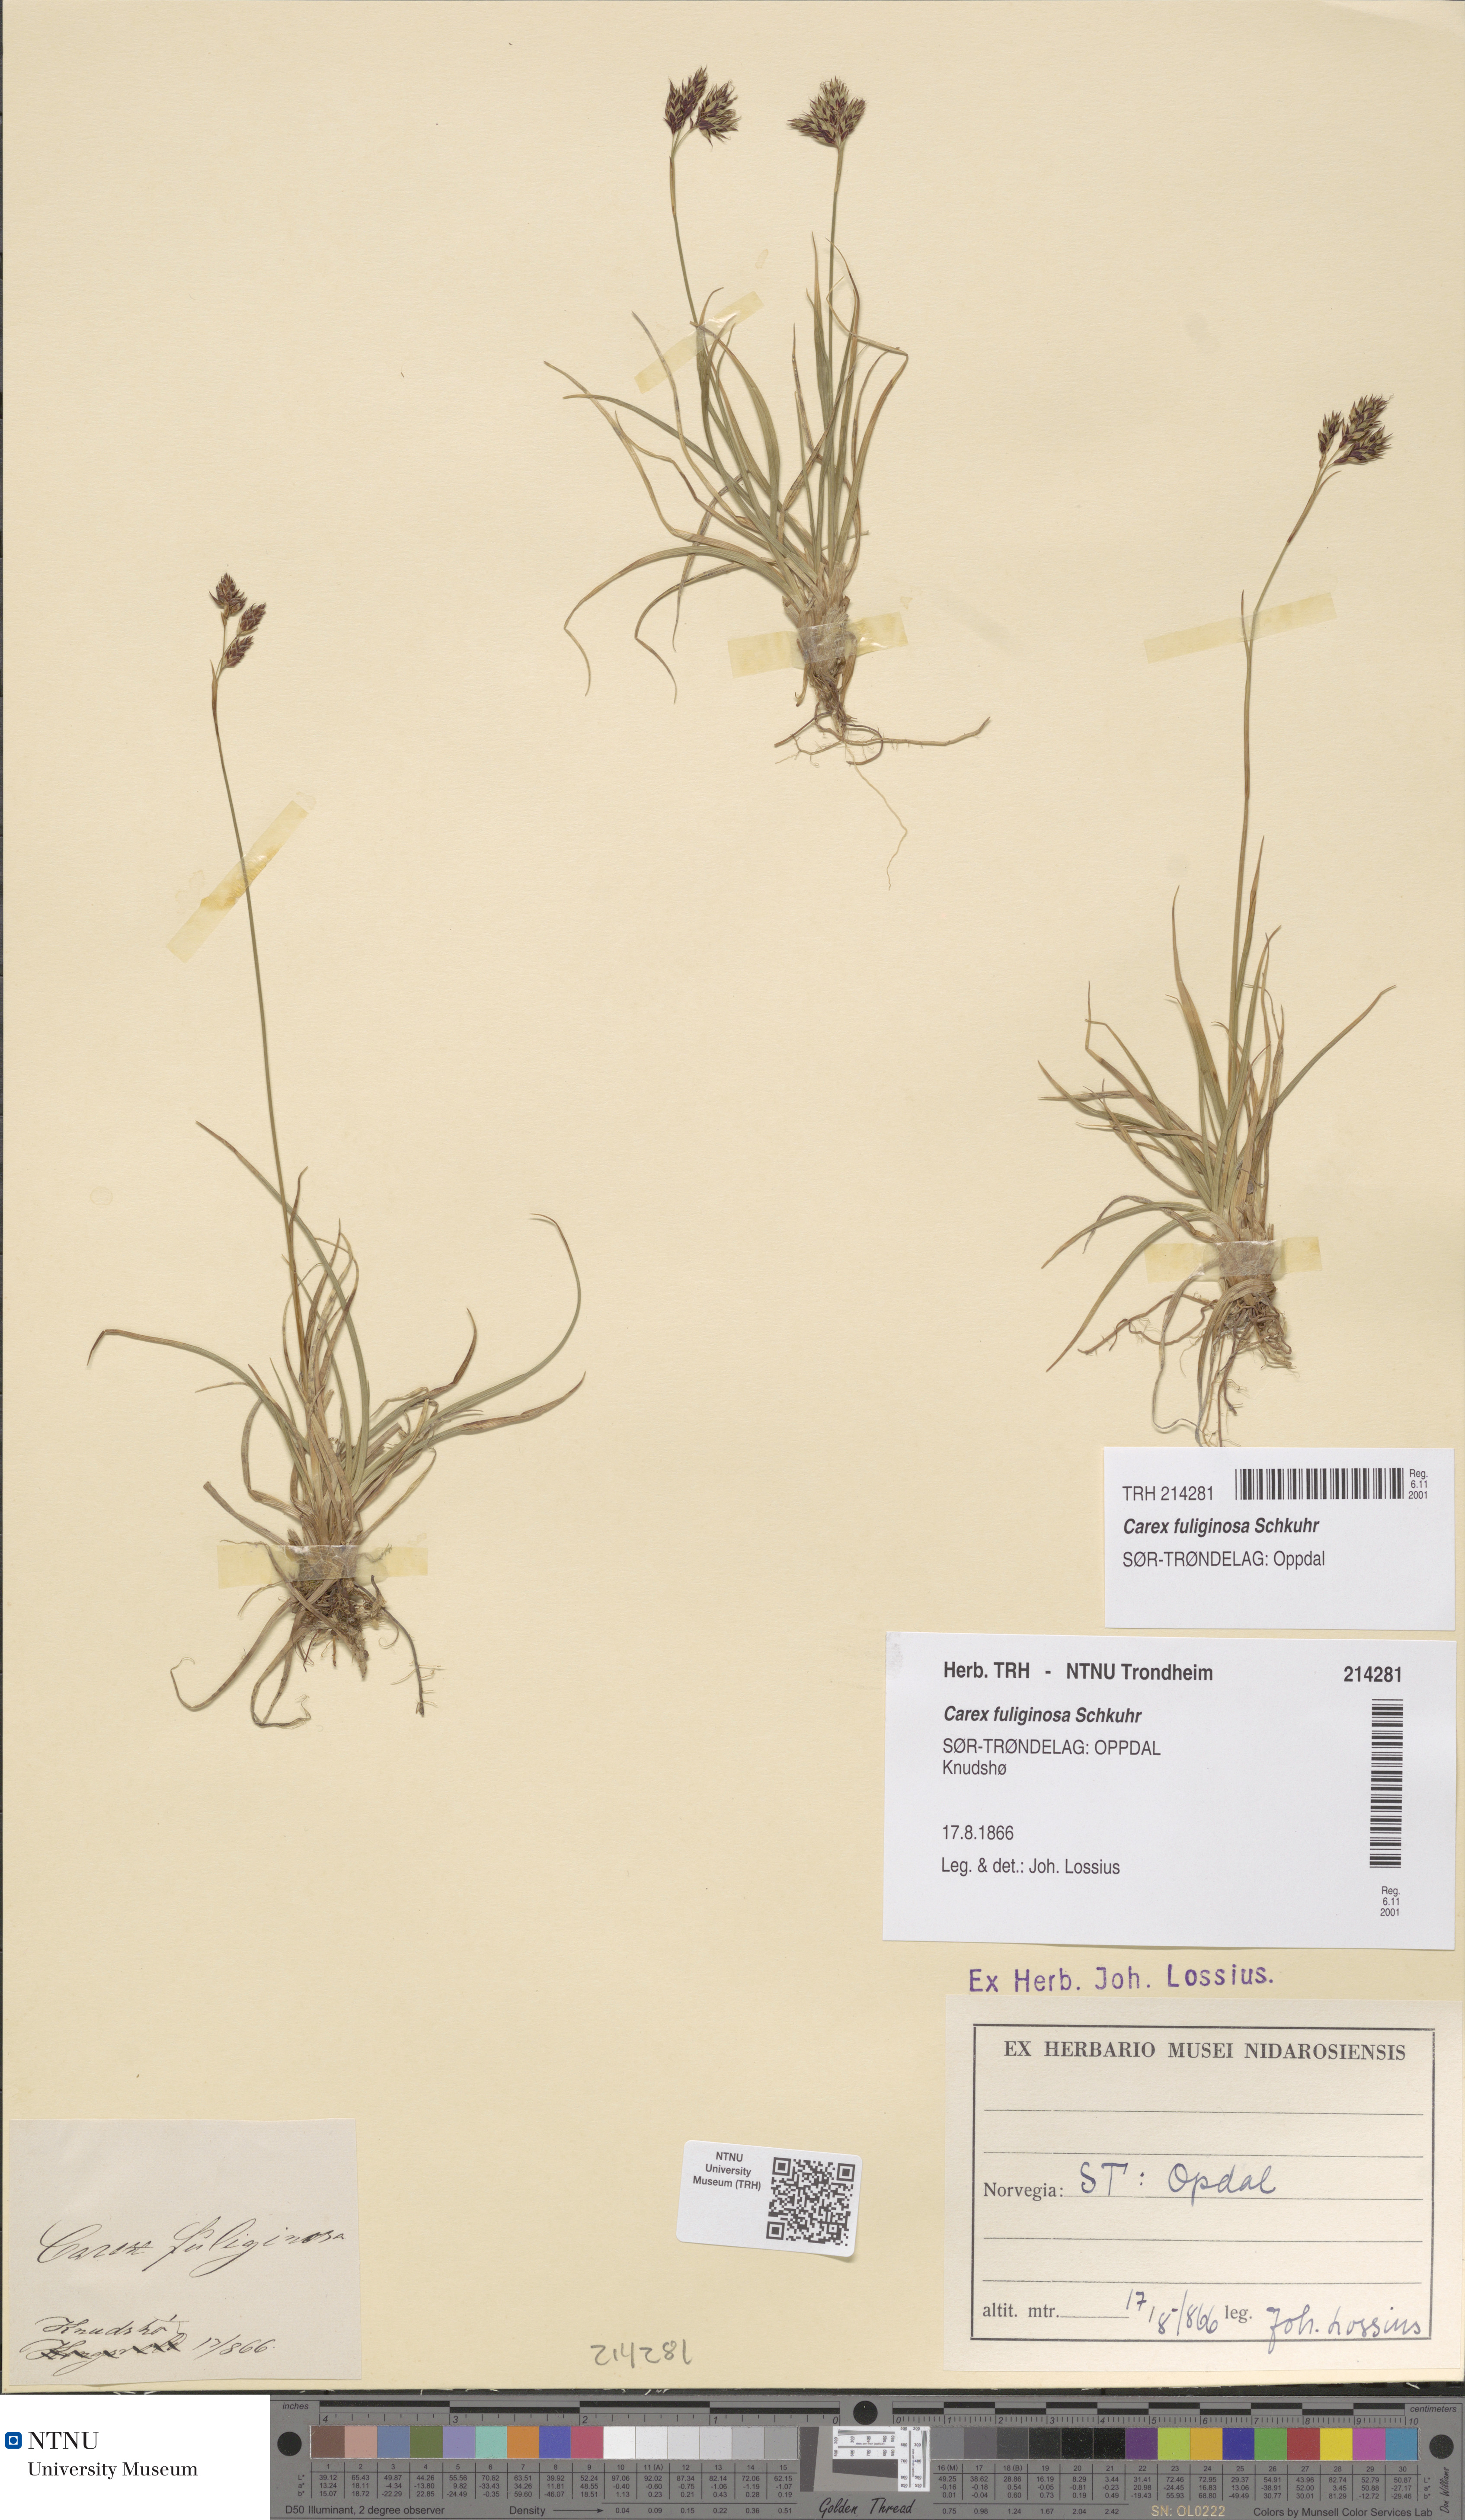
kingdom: Plantae
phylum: Tracheophyta
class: Liliopsida
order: Poales
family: Cyperaceae
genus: Carex
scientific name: Carex fuliginosa
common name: Few-flowered sedge
